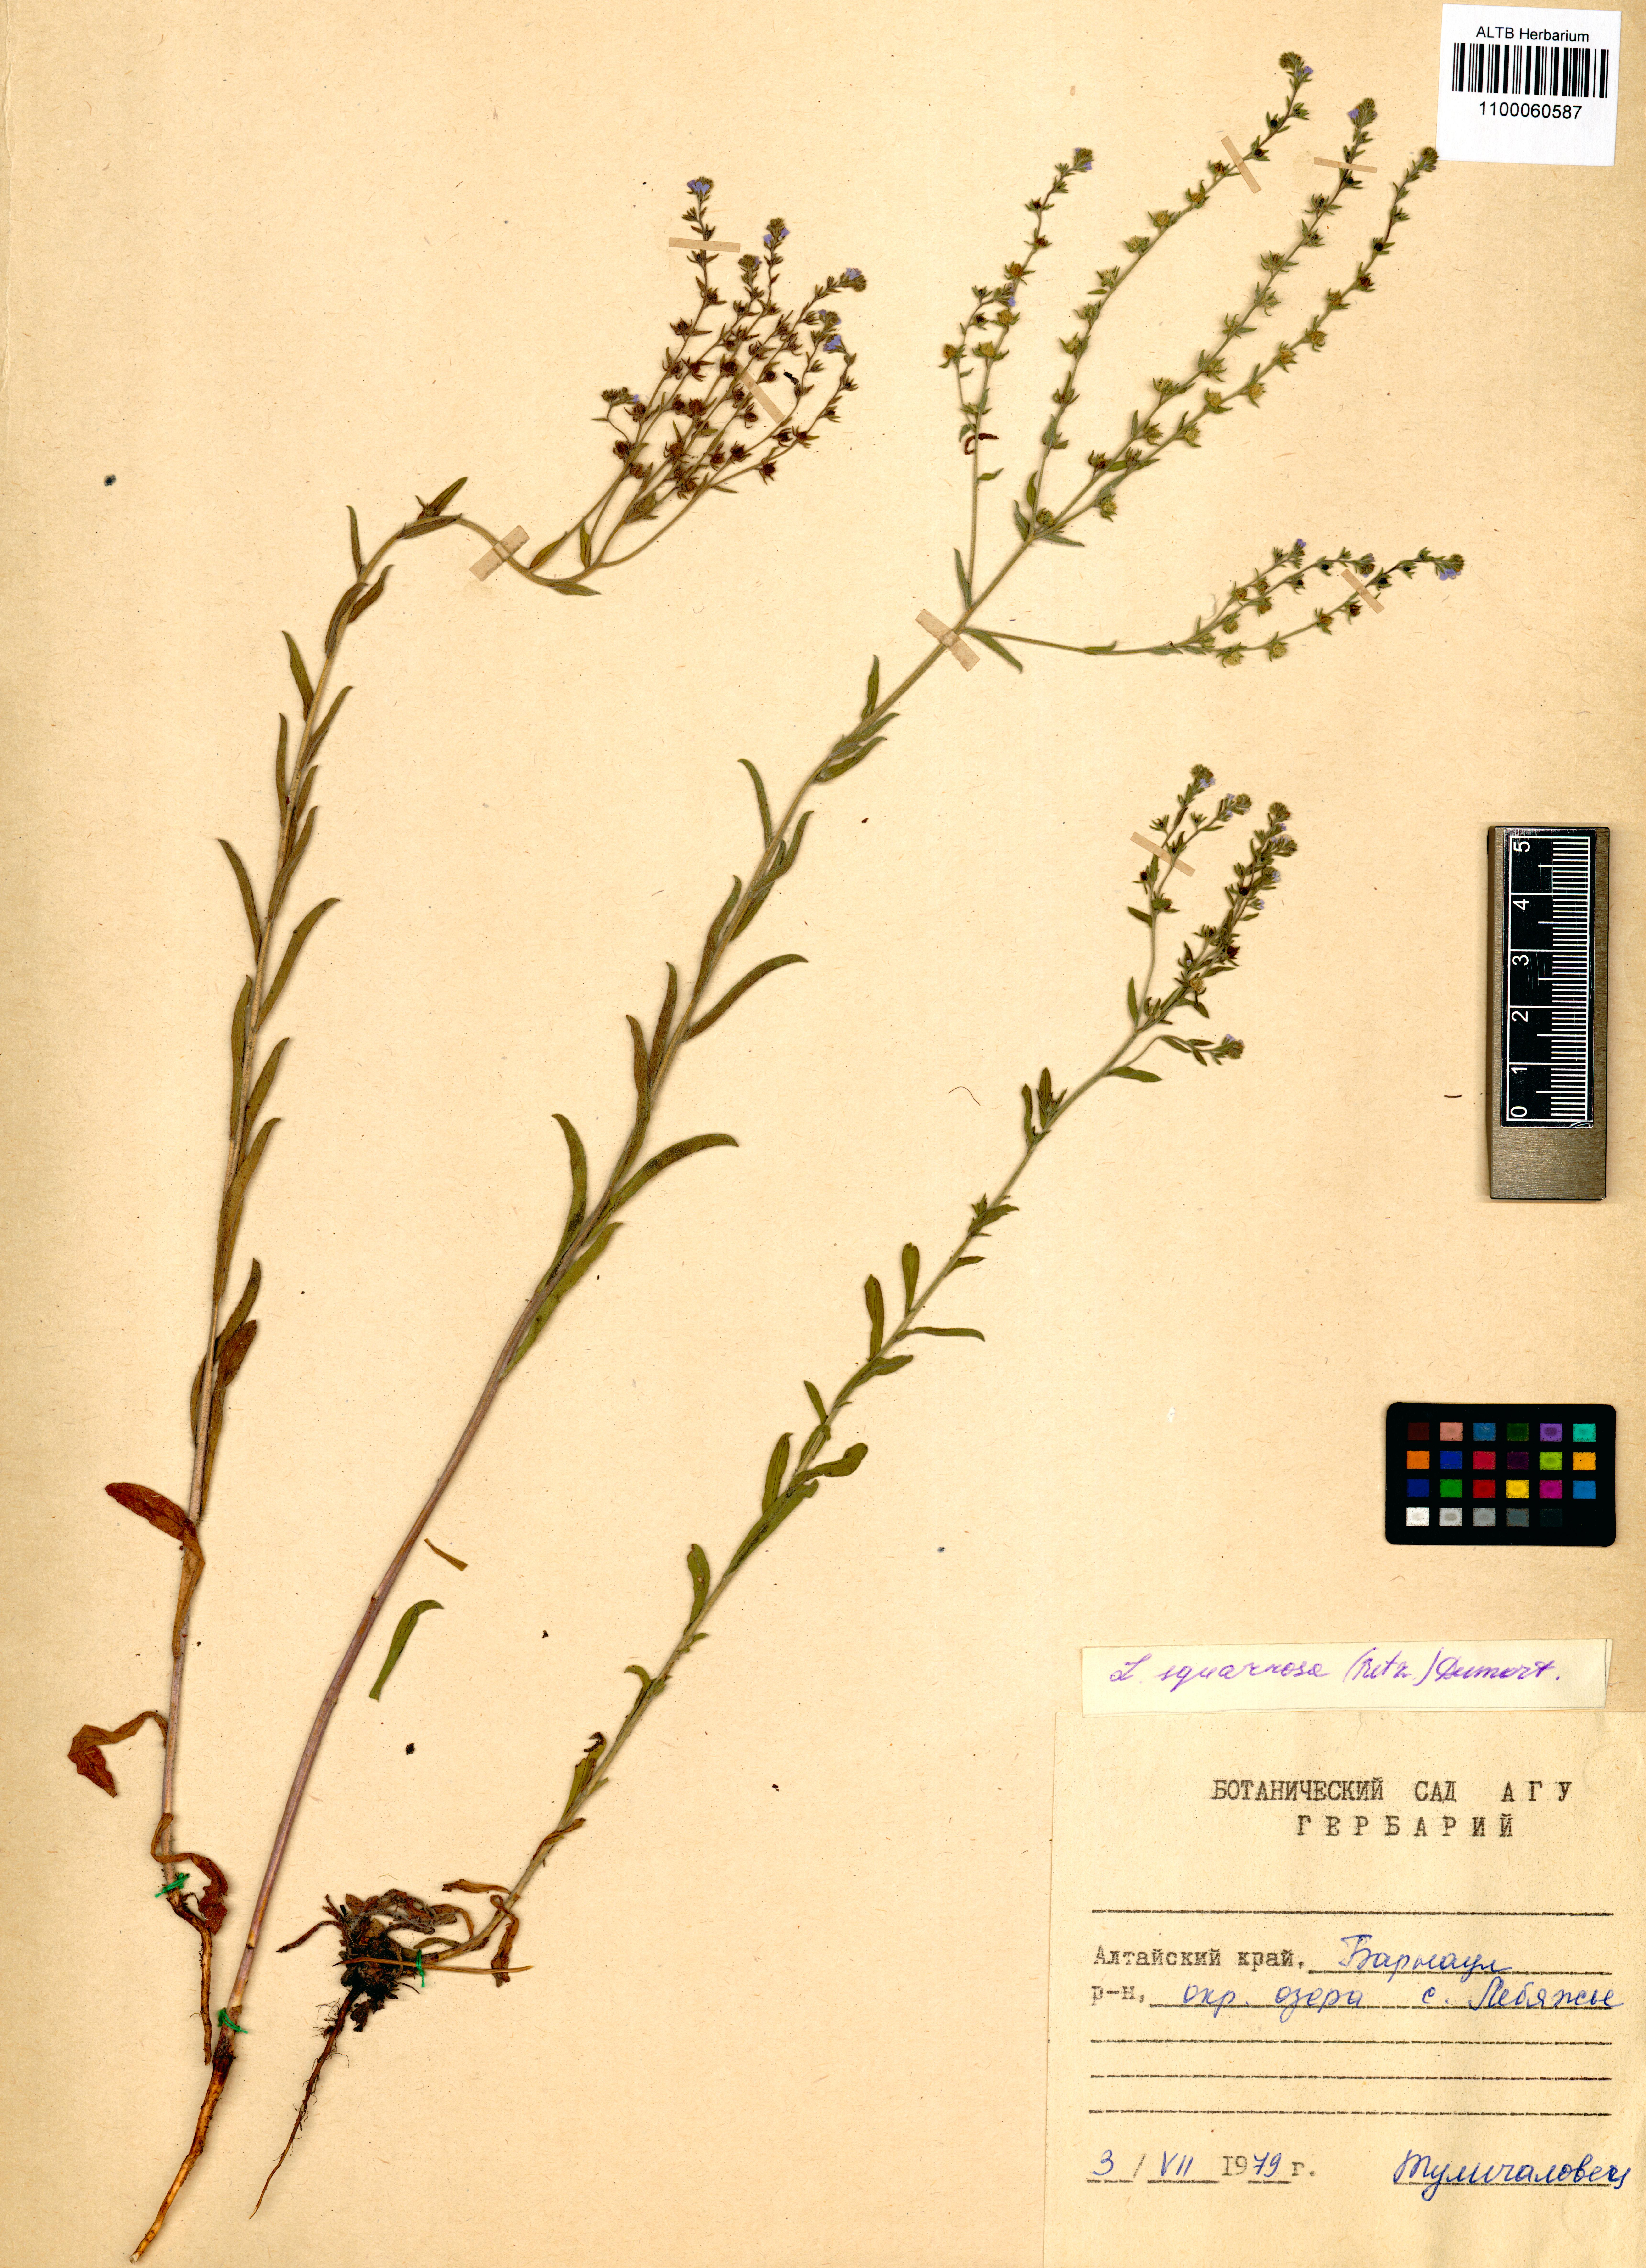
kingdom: Plantae
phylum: Tracheophyta
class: Magnoliopsida
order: Boraginales
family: Boraginaceae
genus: Lappula
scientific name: Lappula squarrosa
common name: European stickseed
